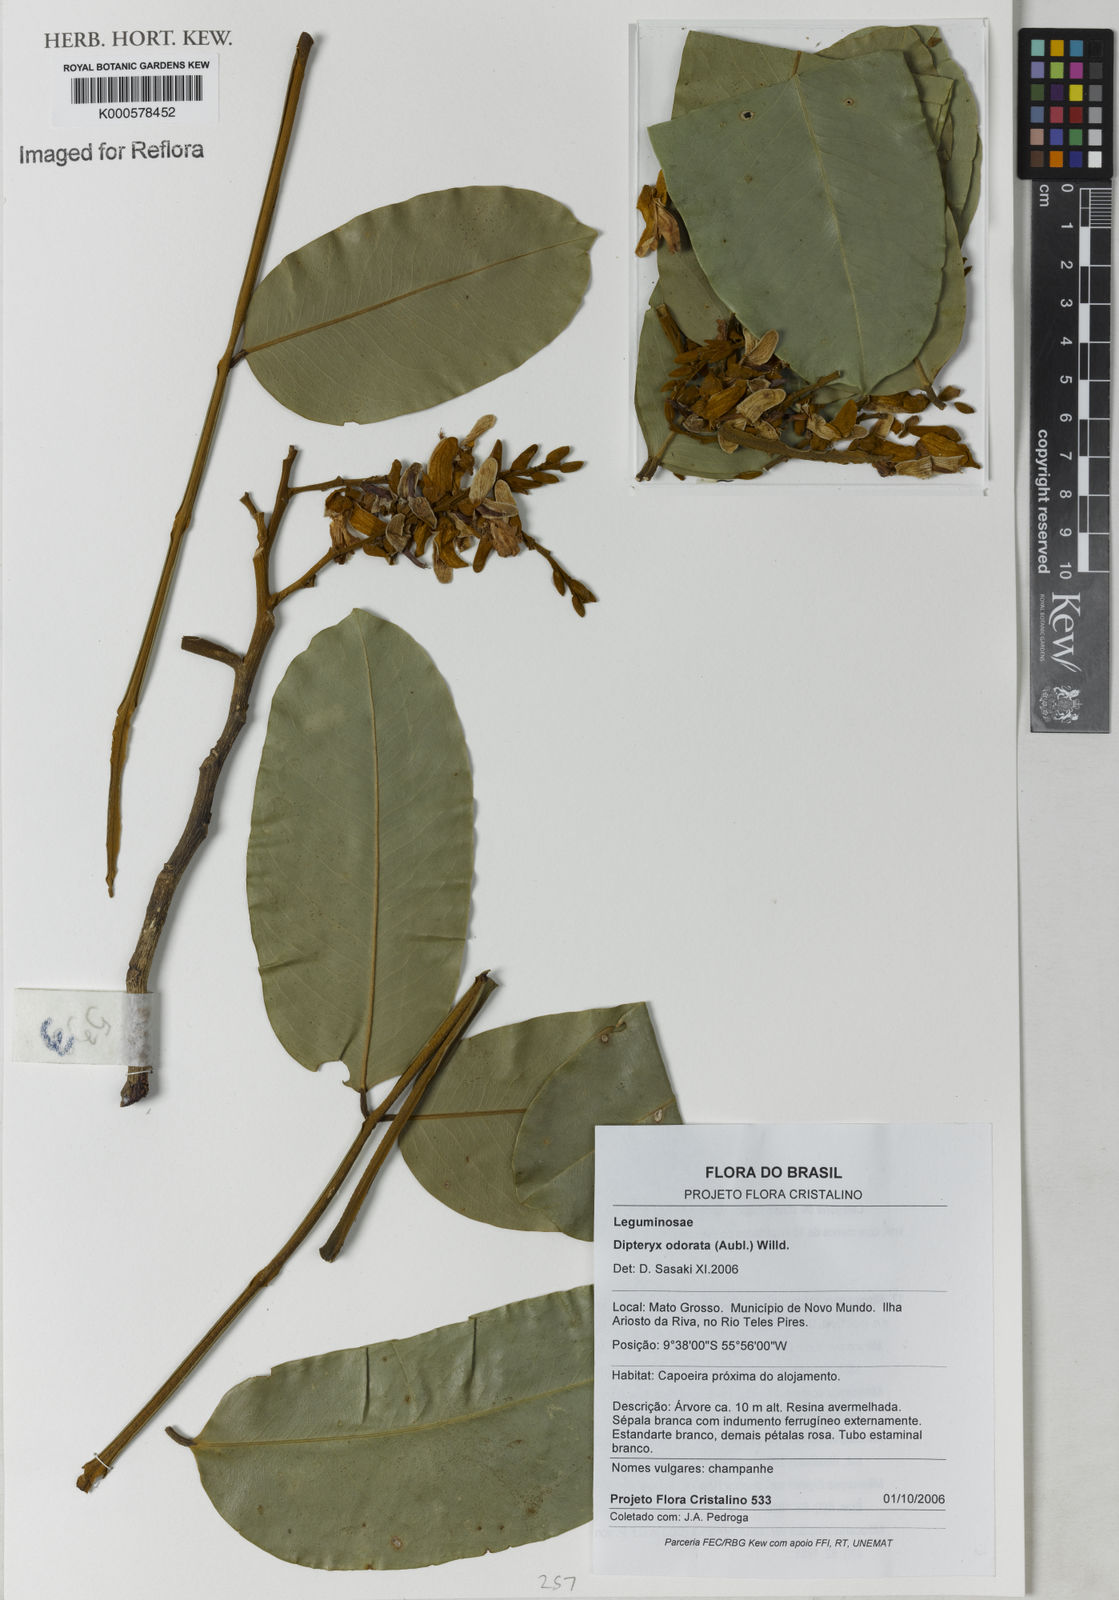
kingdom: Plantae
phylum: Tracheophyta
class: Magnoliopsida
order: Fabales
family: Fabaceae
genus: Dipteryx
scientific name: Dipteryx
